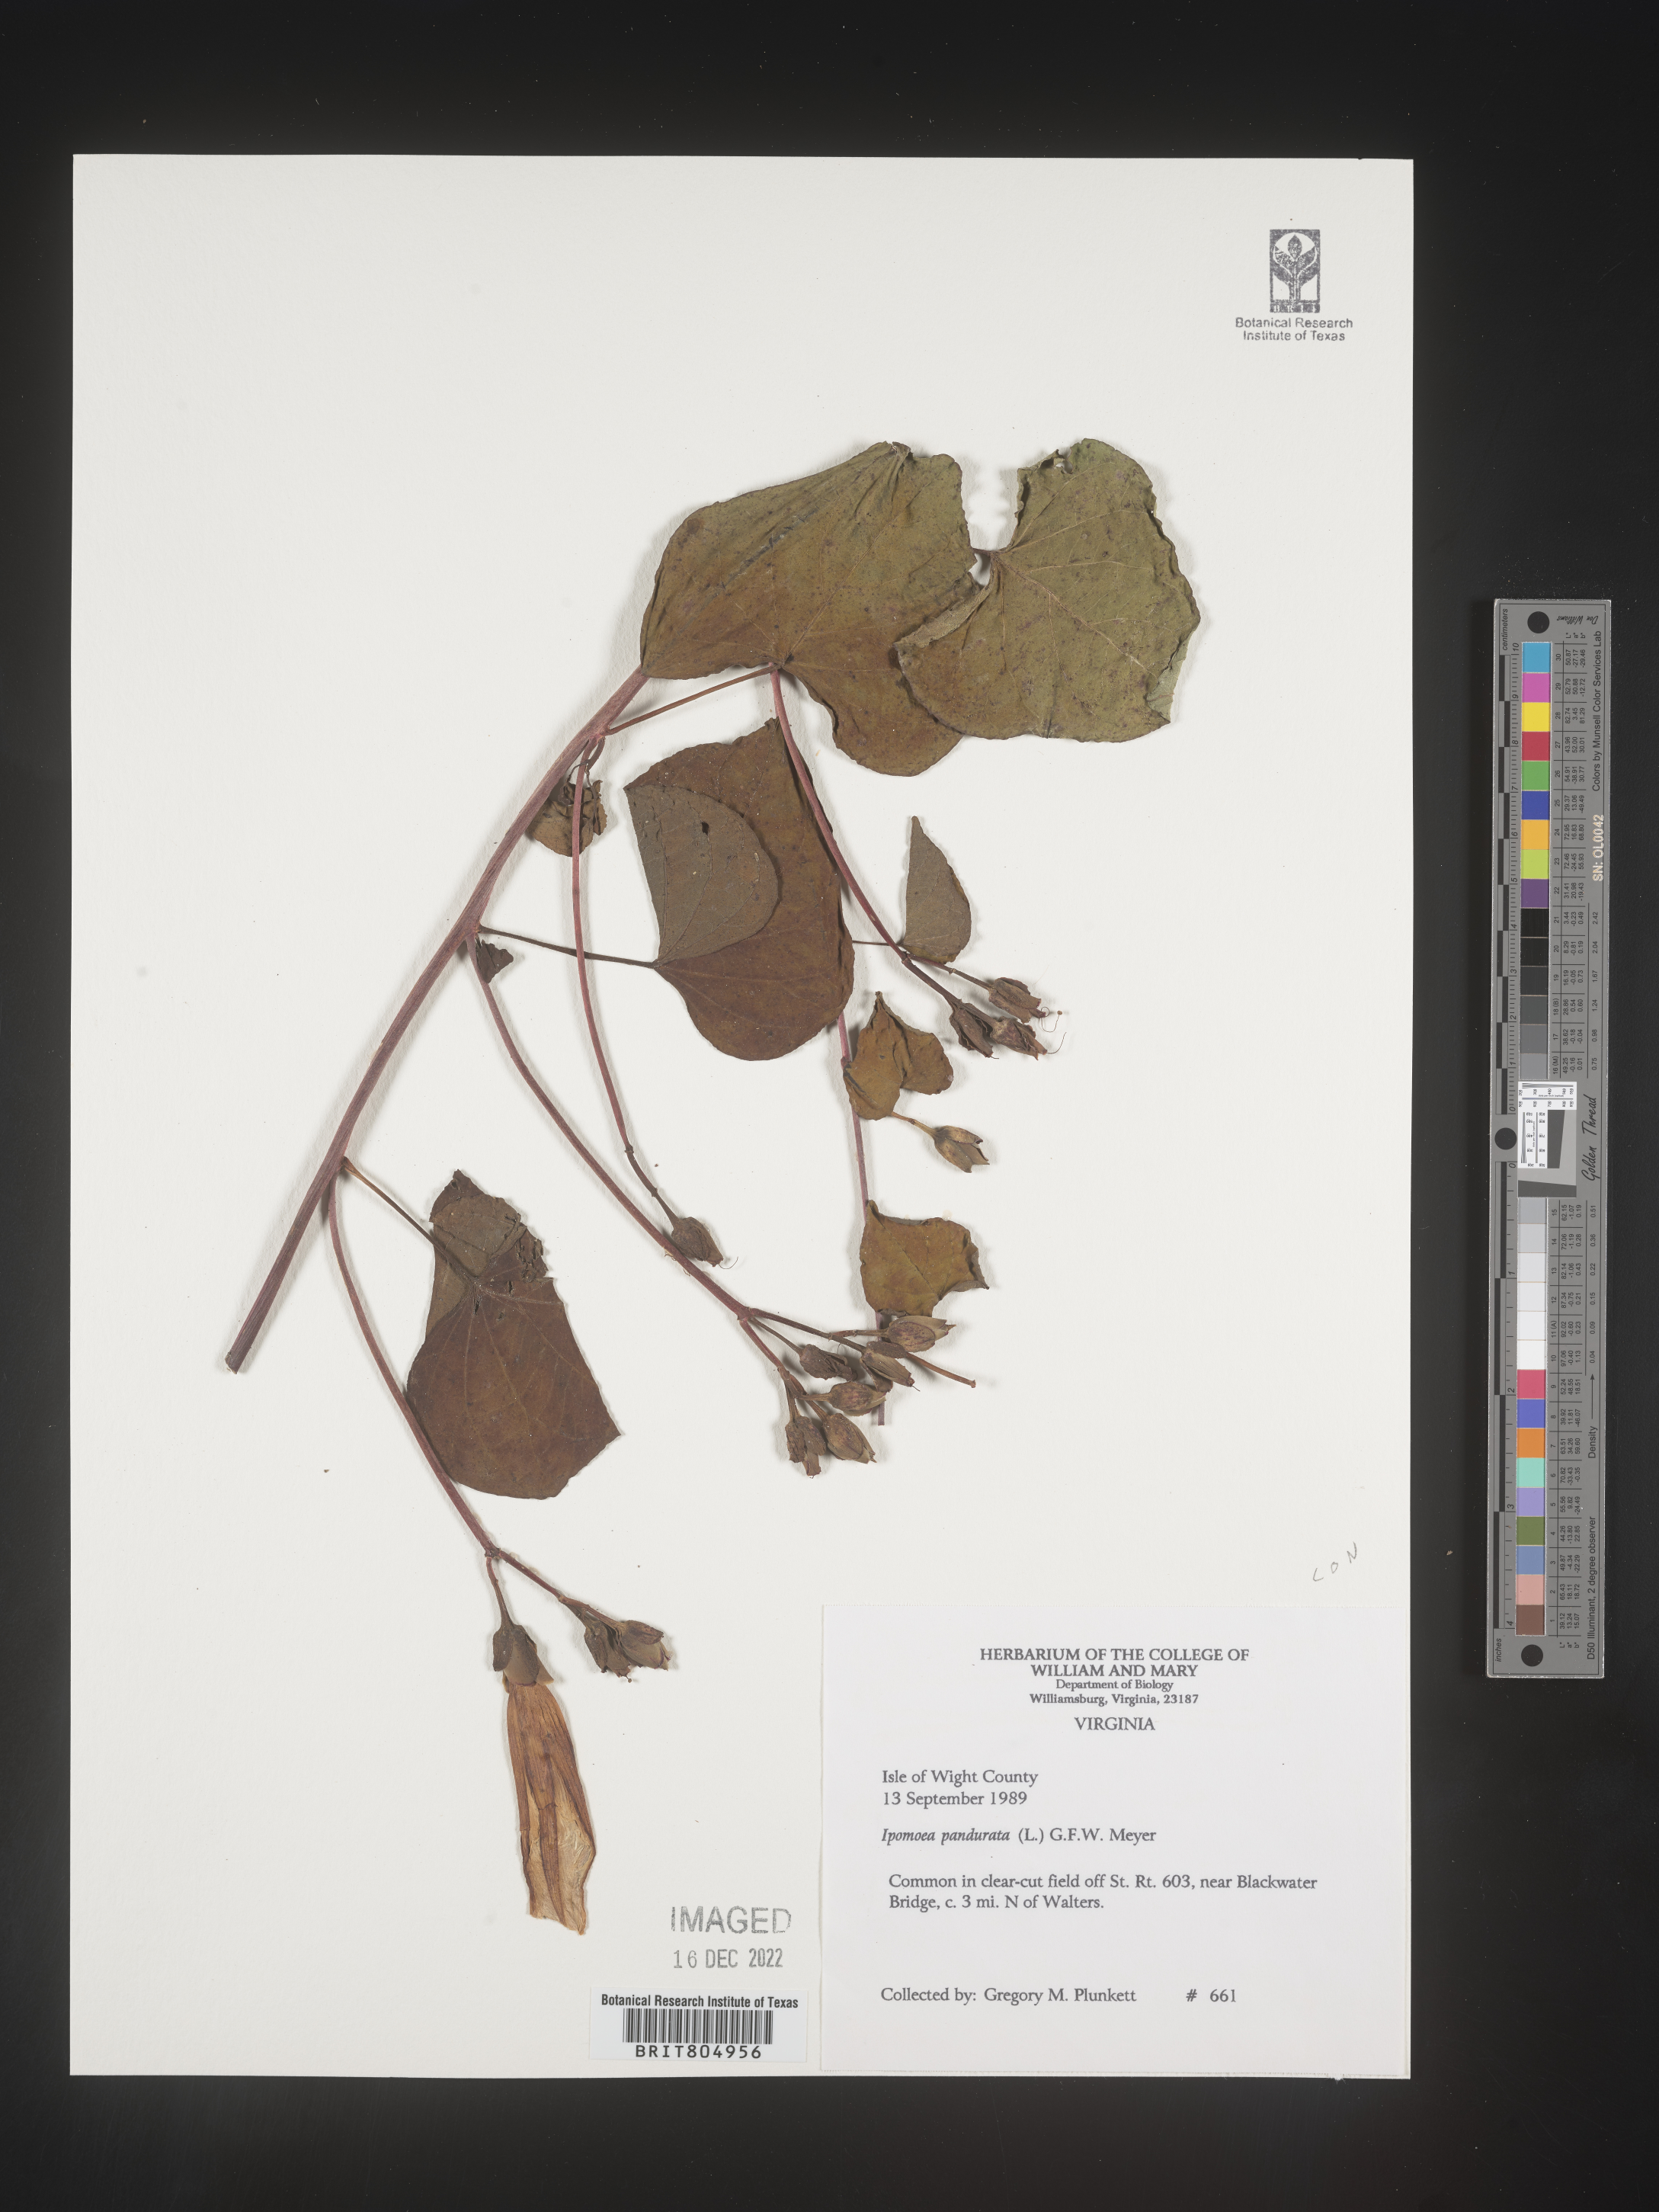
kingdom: Plantae
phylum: Tracheophyta
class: Magnoliopsida
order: Solanales
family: Convolvulaceae
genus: Ipomoea
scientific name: Ipomoea pandurata
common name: Man-of-the-earth
